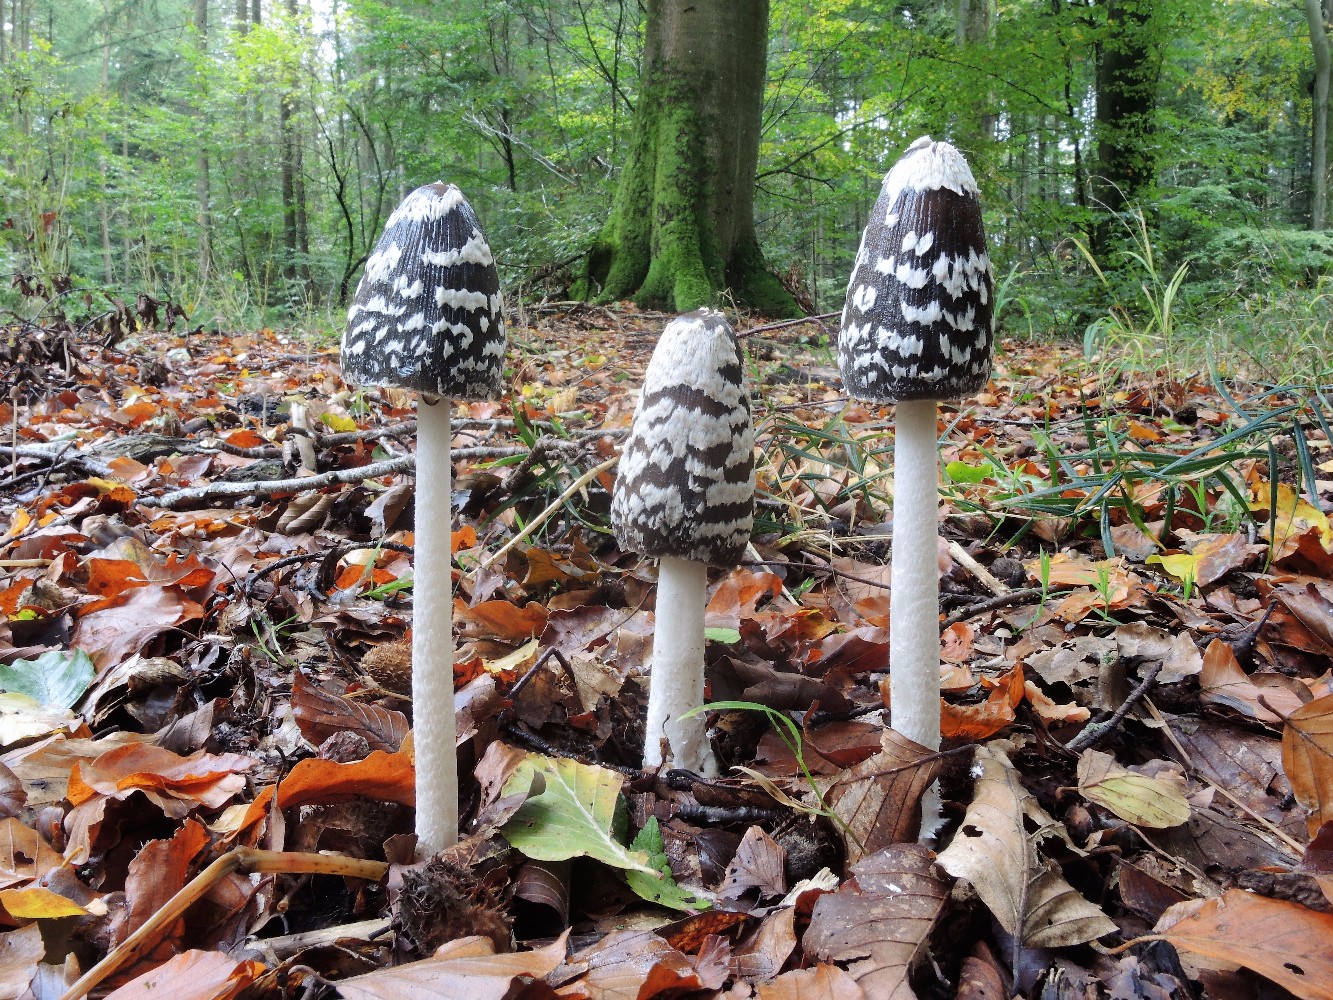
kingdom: Fungi
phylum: Basidiomycota
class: Agaricomycetes
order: Agaricales
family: Psathyrellaceae
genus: Coprinopsis
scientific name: Coprinopsis picacea
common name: skade-blækhat
